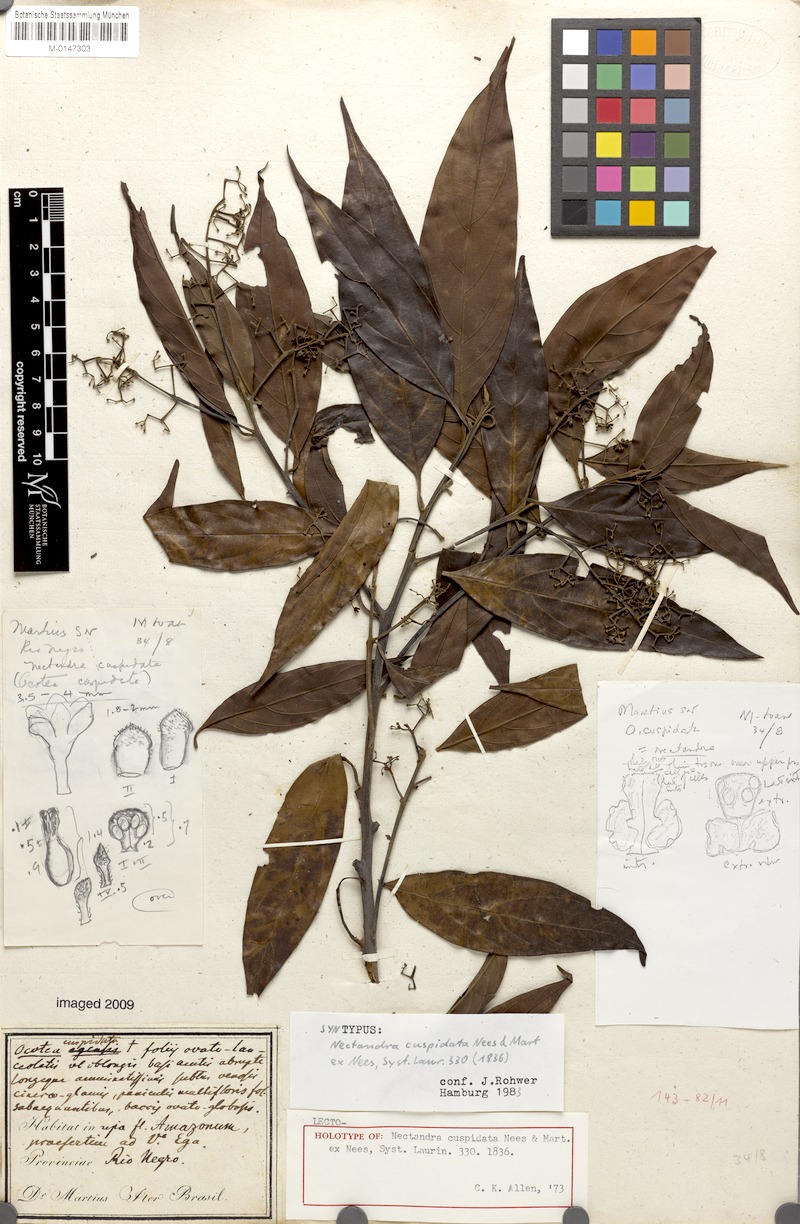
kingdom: Plantae
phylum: Tracheophyta
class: Magnoliopsida
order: Laurales
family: Lauraceae
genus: Nectandra
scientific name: Nectandra cuspidata
